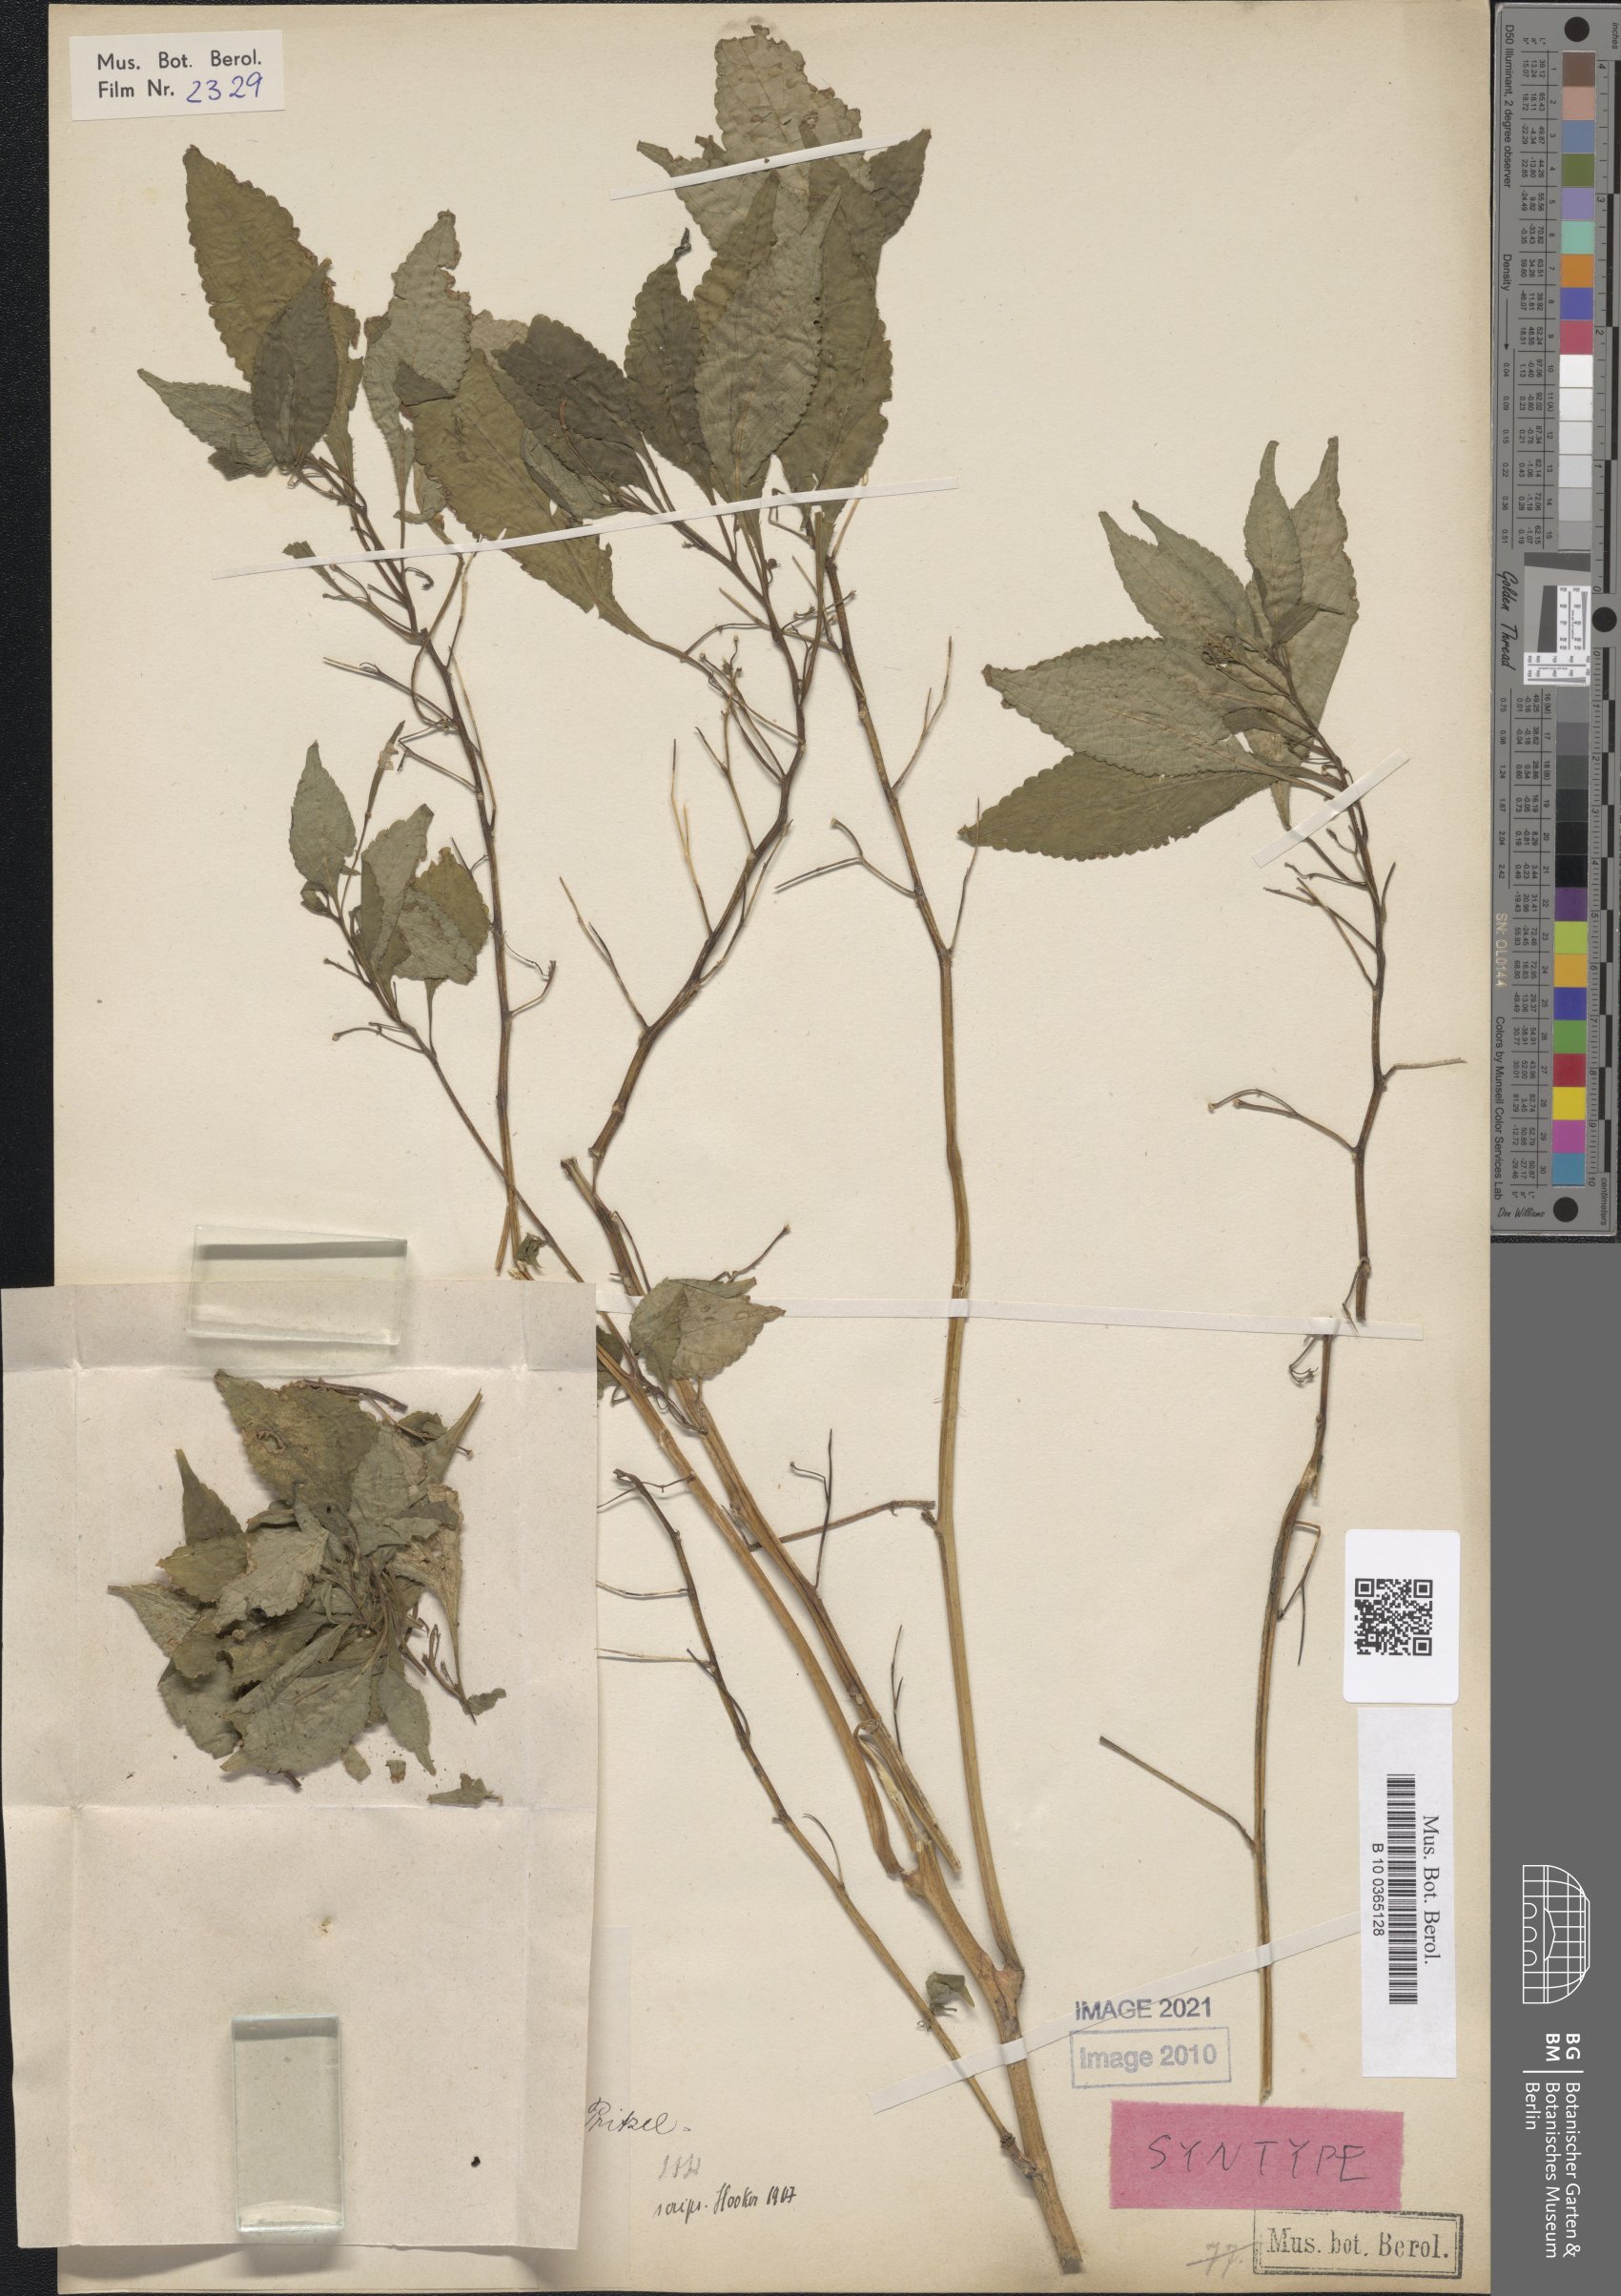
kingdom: Plantae
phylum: Tracheophyta
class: Magnoliopsida
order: Ericales
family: Balsaminaceae
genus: Impatiens
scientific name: Impatiens stenosepala
